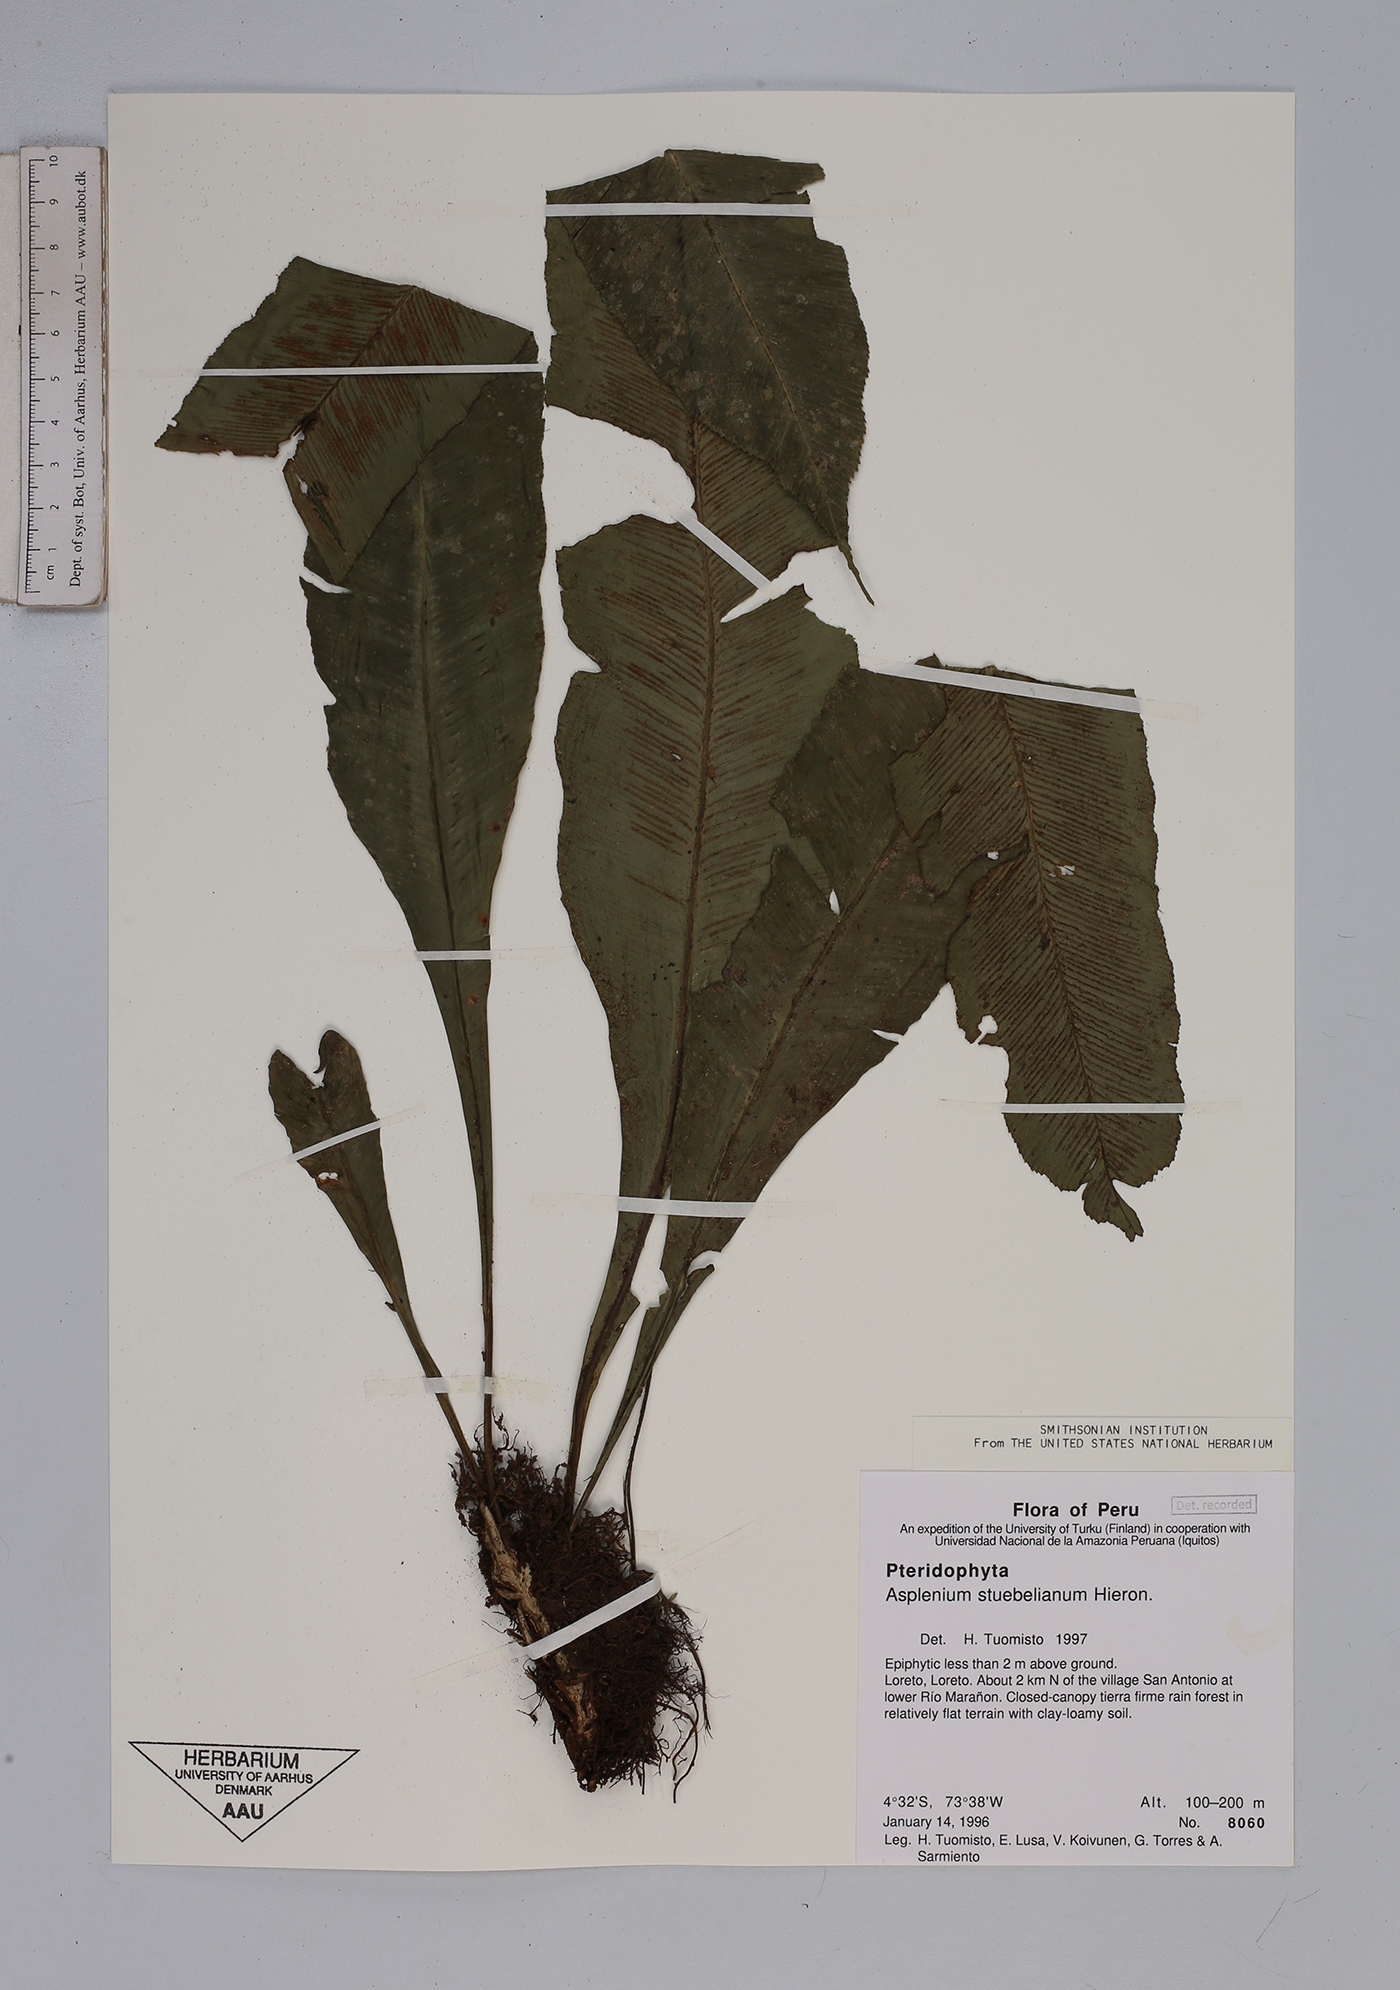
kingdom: Plantae
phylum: Tracheophyta
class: Polypodiopsida
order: Polypodiales
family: Aspleniaceae
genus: Asplenium
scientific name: Asplenium stuebelianum
